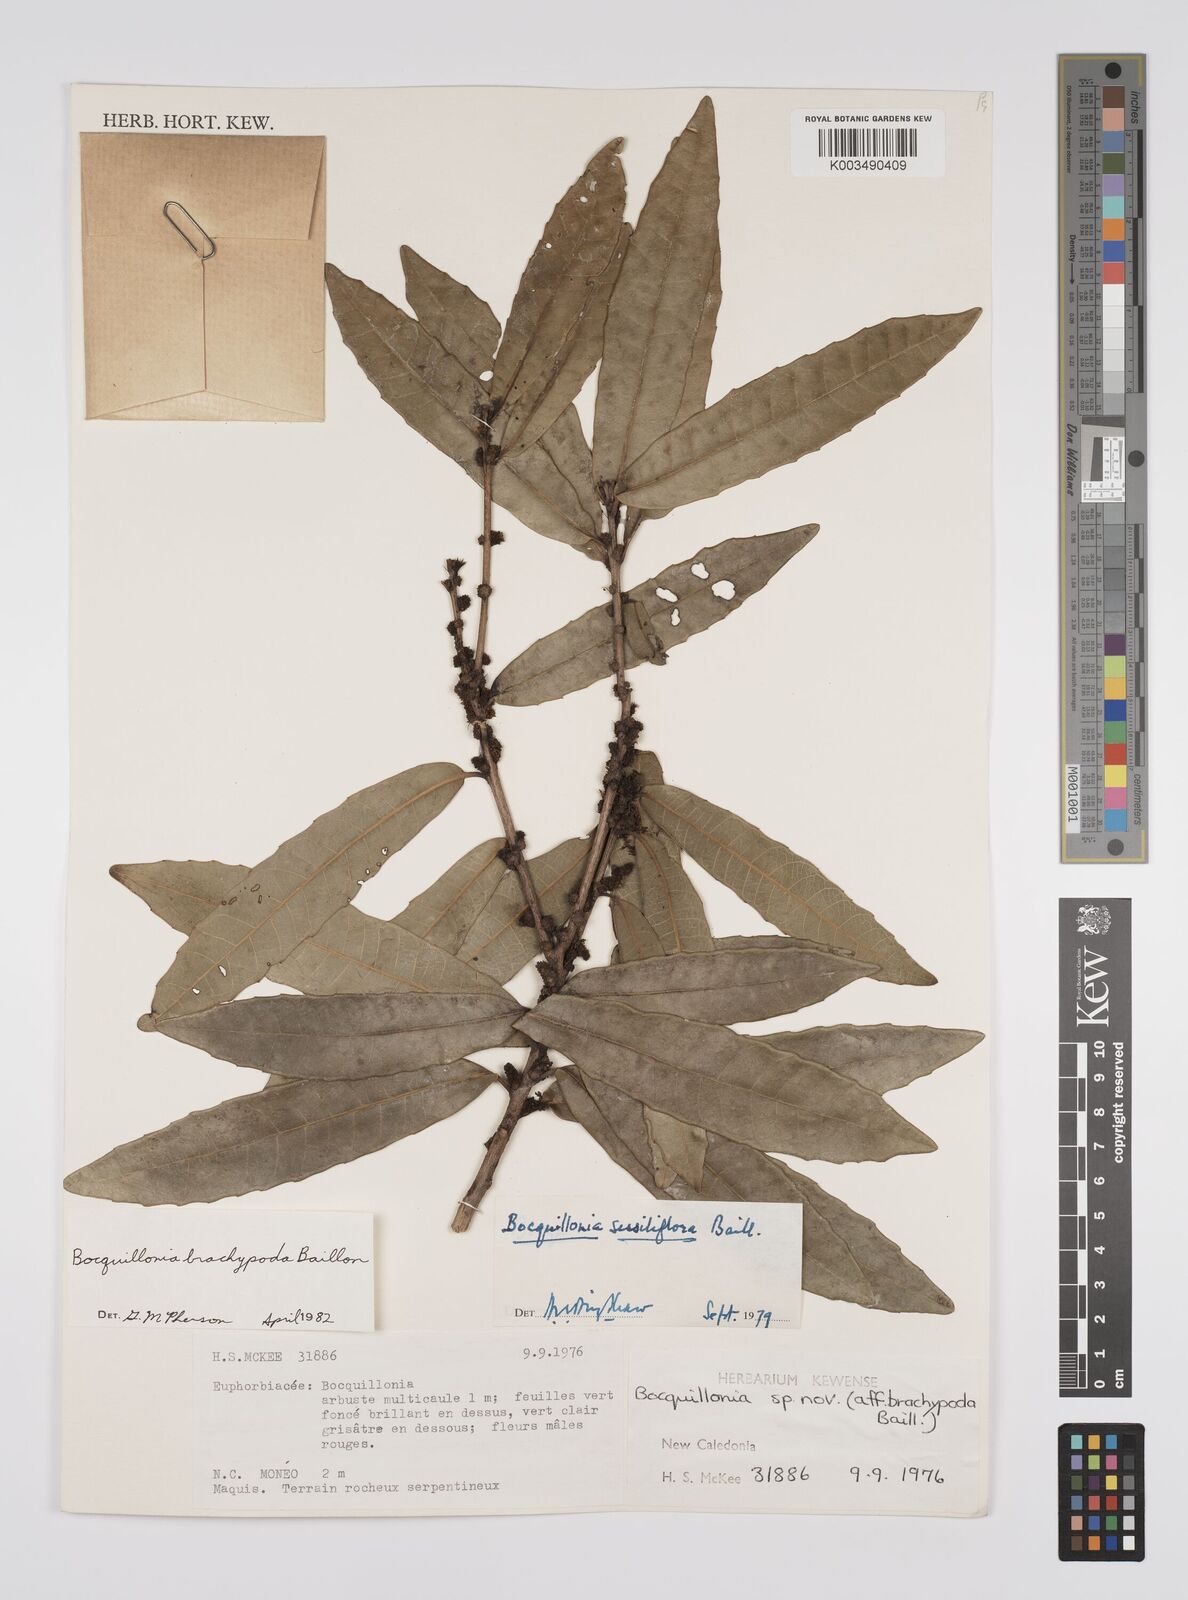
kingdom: Plantae
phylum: Tracheophyta
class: Magnoliopsida
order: Malpighiales
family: Euphorbiaceae
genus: Bocquillonia
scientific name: Bocquillonia brachypoda
